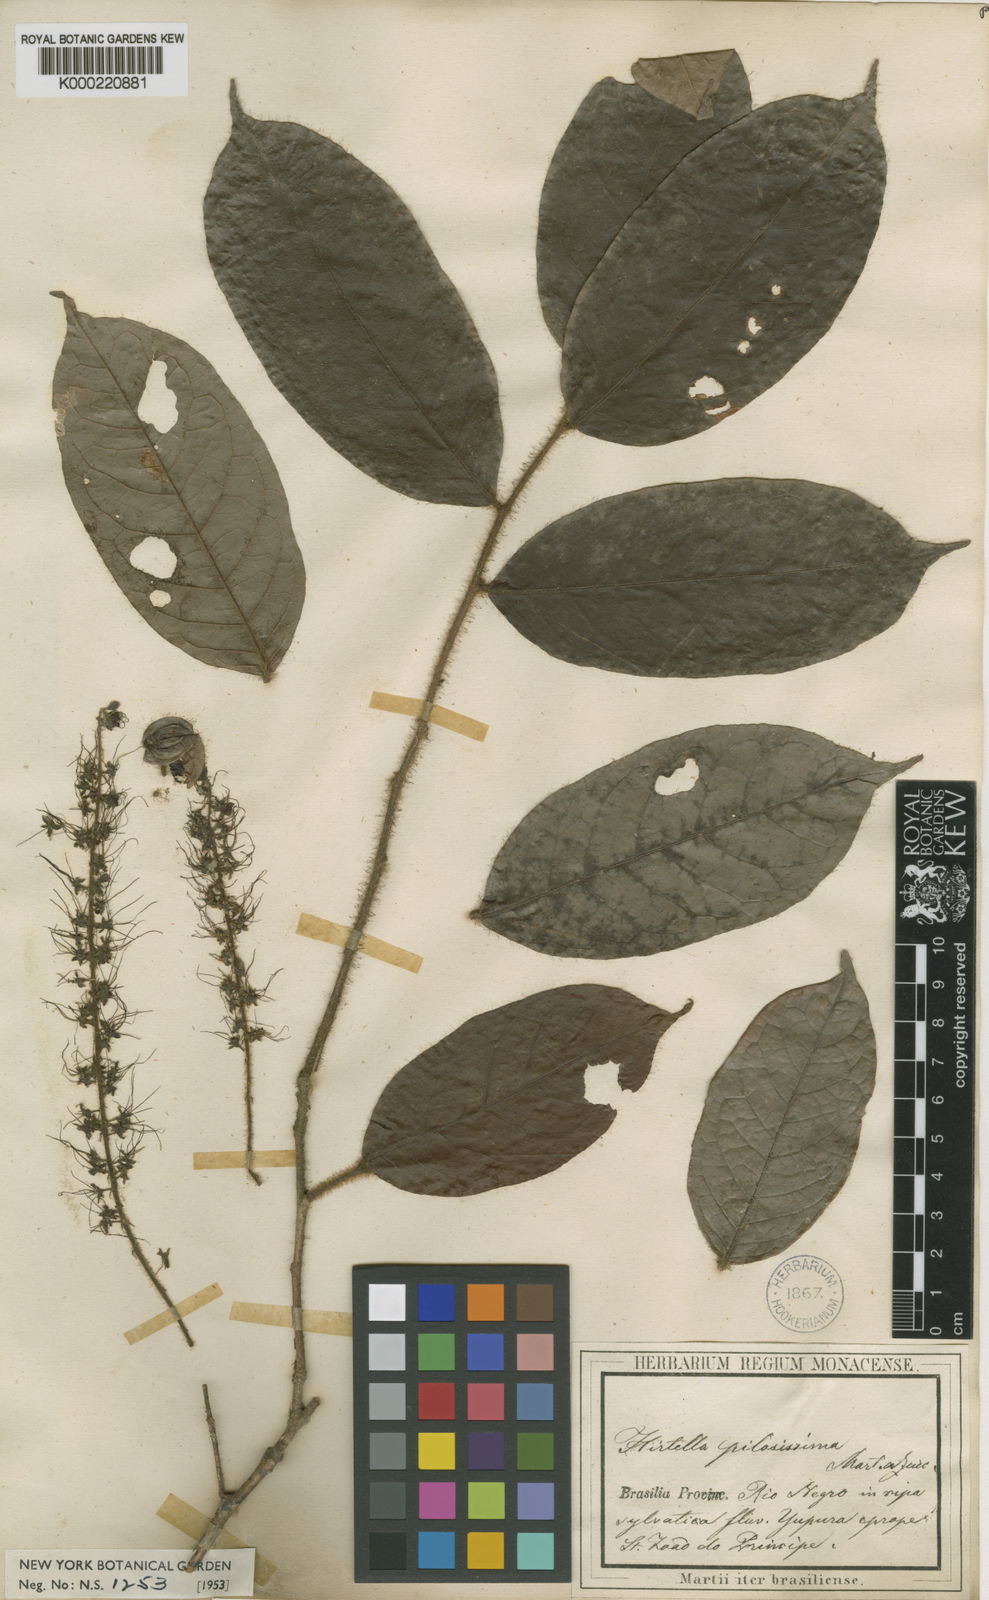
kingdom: Plantae
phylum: Tracheophyta
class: Magnoliopsida
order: Malpighiales
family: Chrysobalanaceae
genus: Hirtella
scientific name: Hirtella pilosissima
